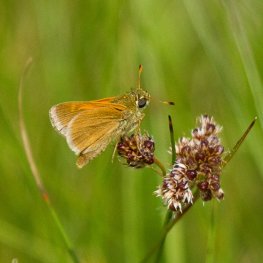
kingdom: Animalia
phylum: Arthropoda
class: Insecta
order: Lepidoptera
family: Hesperiidae
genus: Polites
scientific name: Polites themistocles
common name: Tawny-edged Skipper
